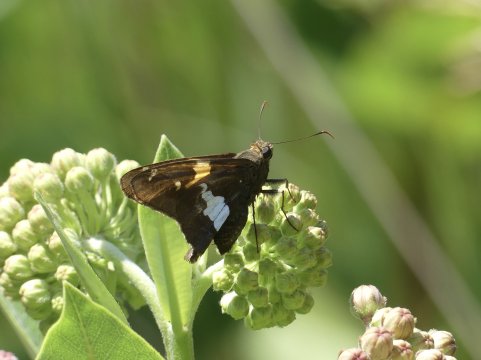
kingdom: Animalia
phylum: Arthropoda
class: Insecta
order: Lepidoptera
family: Hesperiidae
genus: Epargyreus
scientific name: Epargyreus clarus
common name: Silver-spotted Skipper
